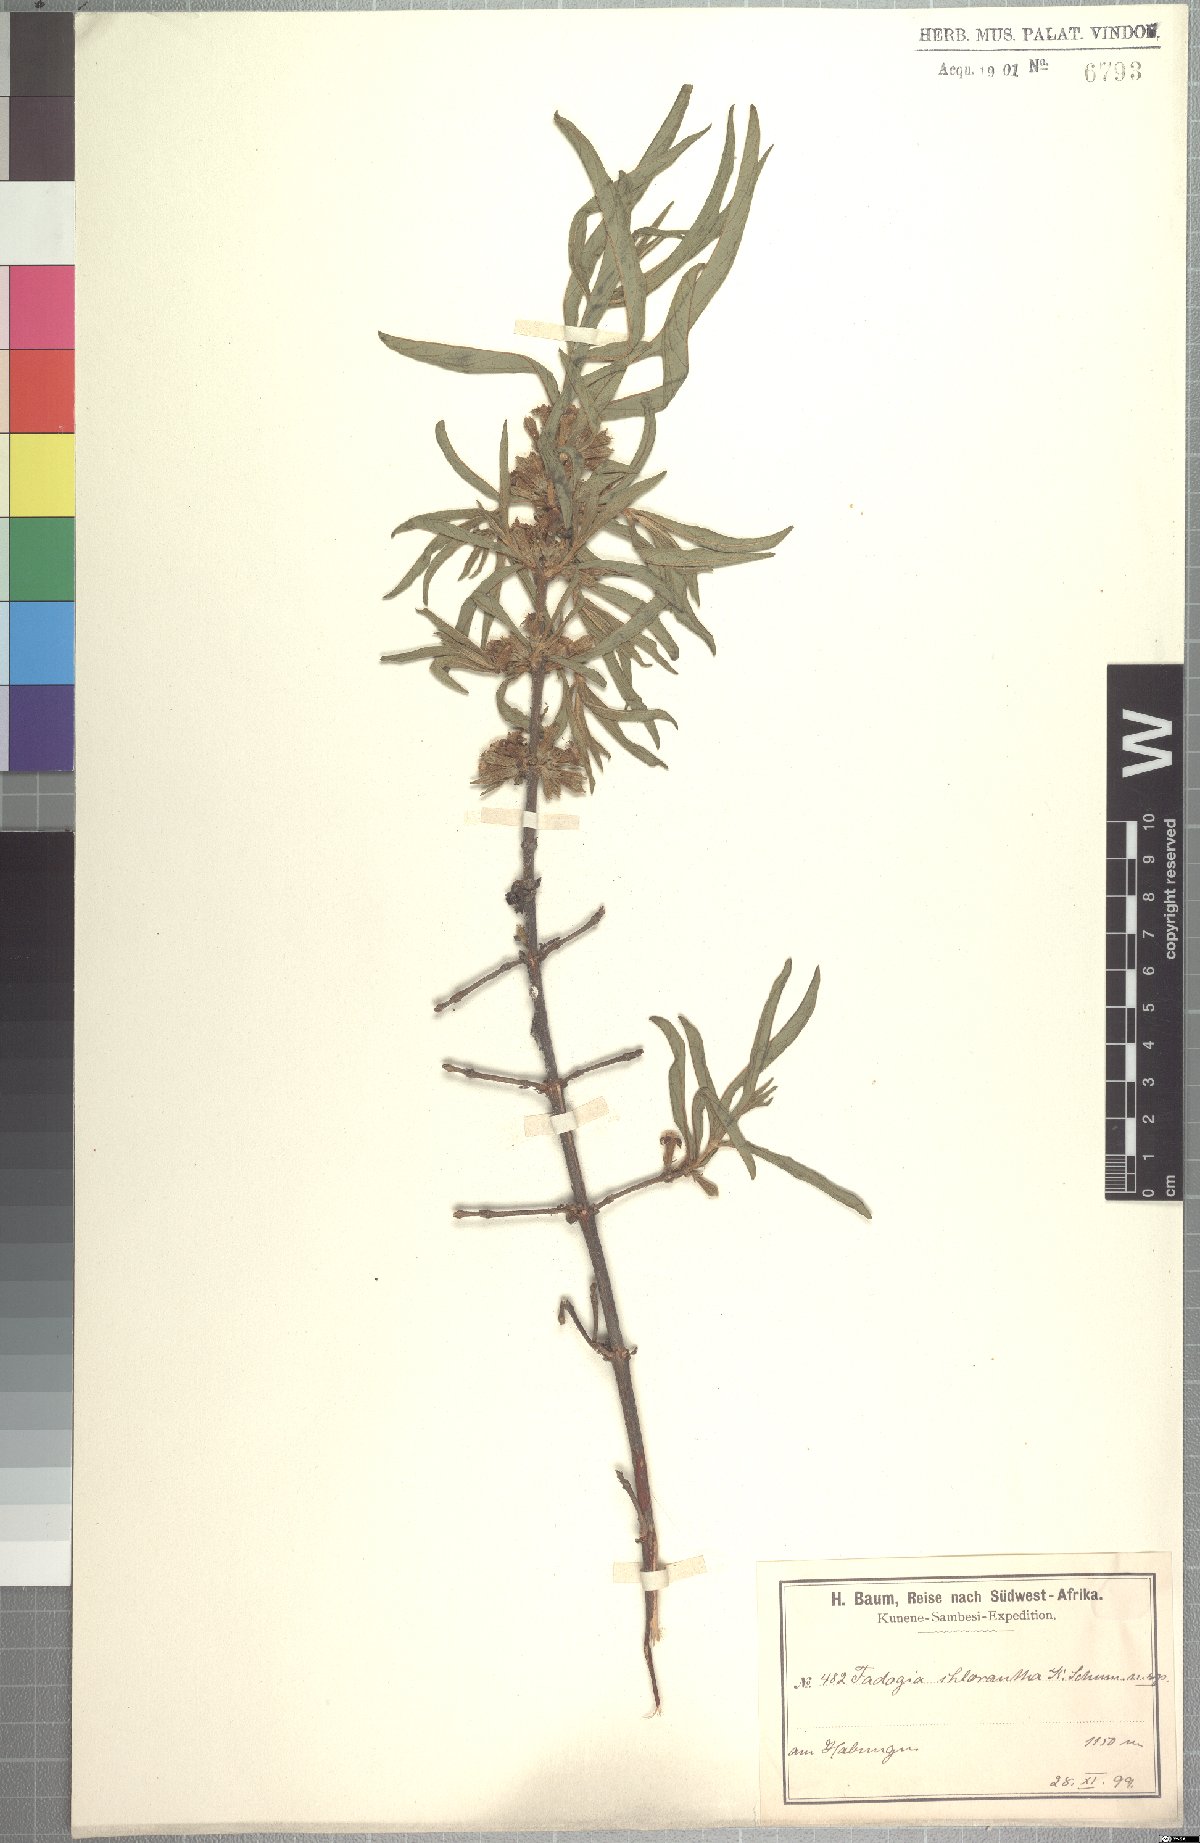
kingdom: Plantae
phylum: Tracheophyta
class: Magnoliopsida
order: Gentianales
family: Rubiaceae
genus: Fadogia
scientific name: Fadogia chlorantha
